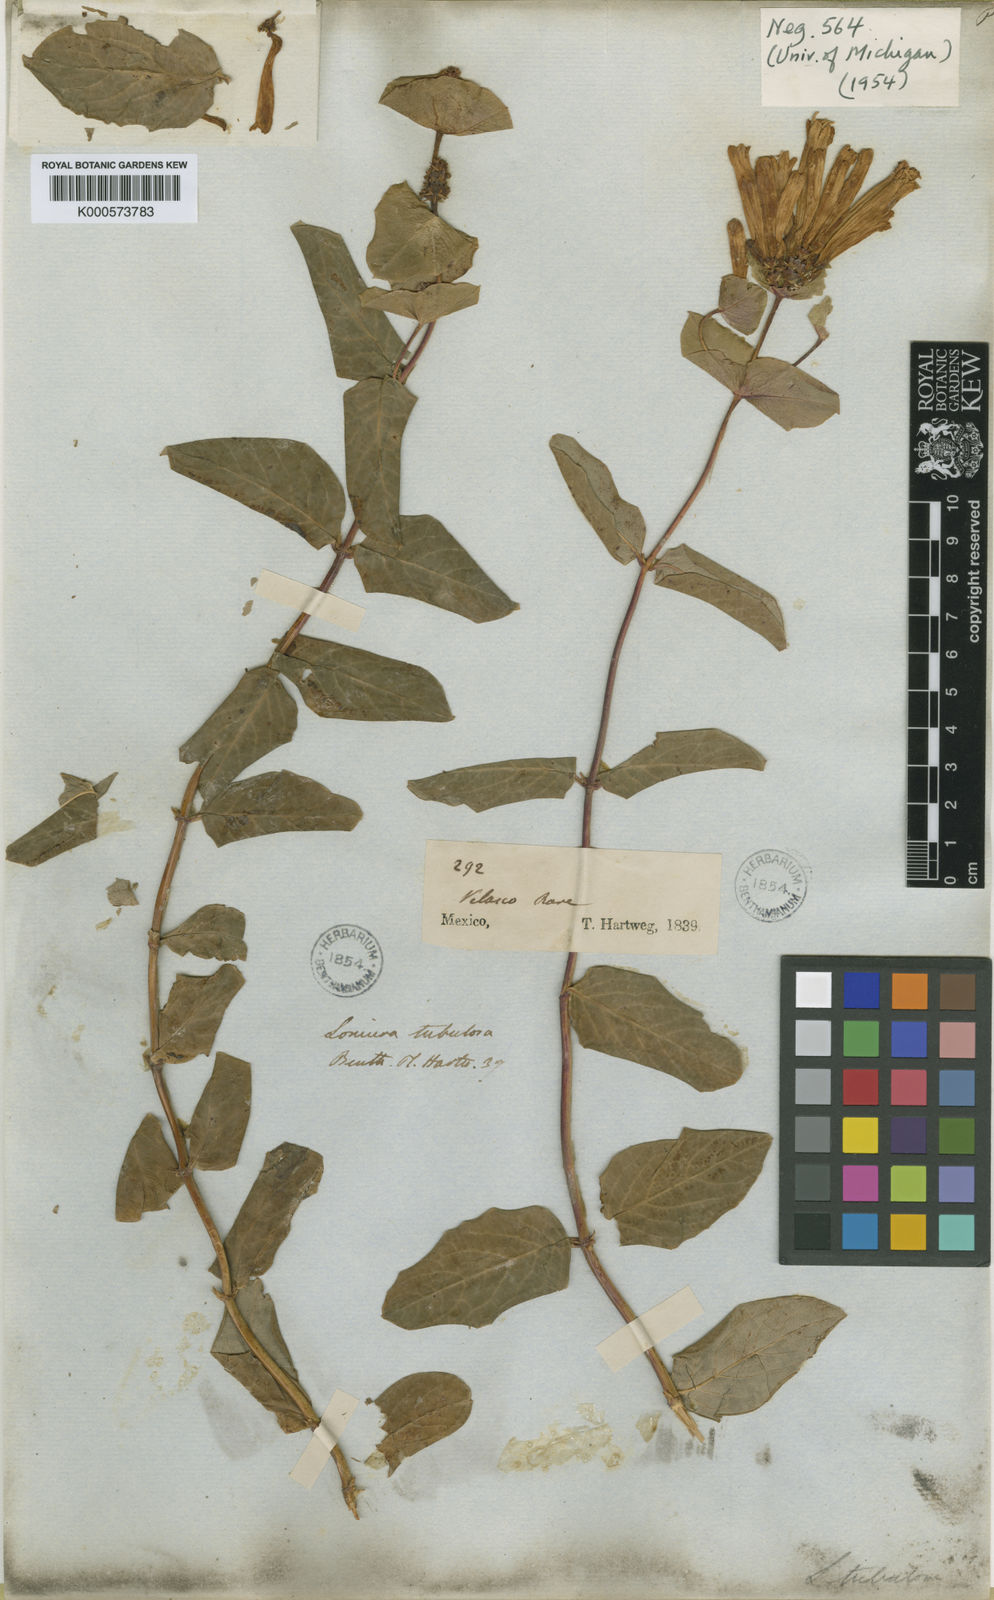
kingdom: Plantae
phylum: Tracheophyta
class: Magnoliopsida
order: Dipsacales
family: Caprifoliaceae
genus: Lonicera
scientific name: Lonicera pilosa
